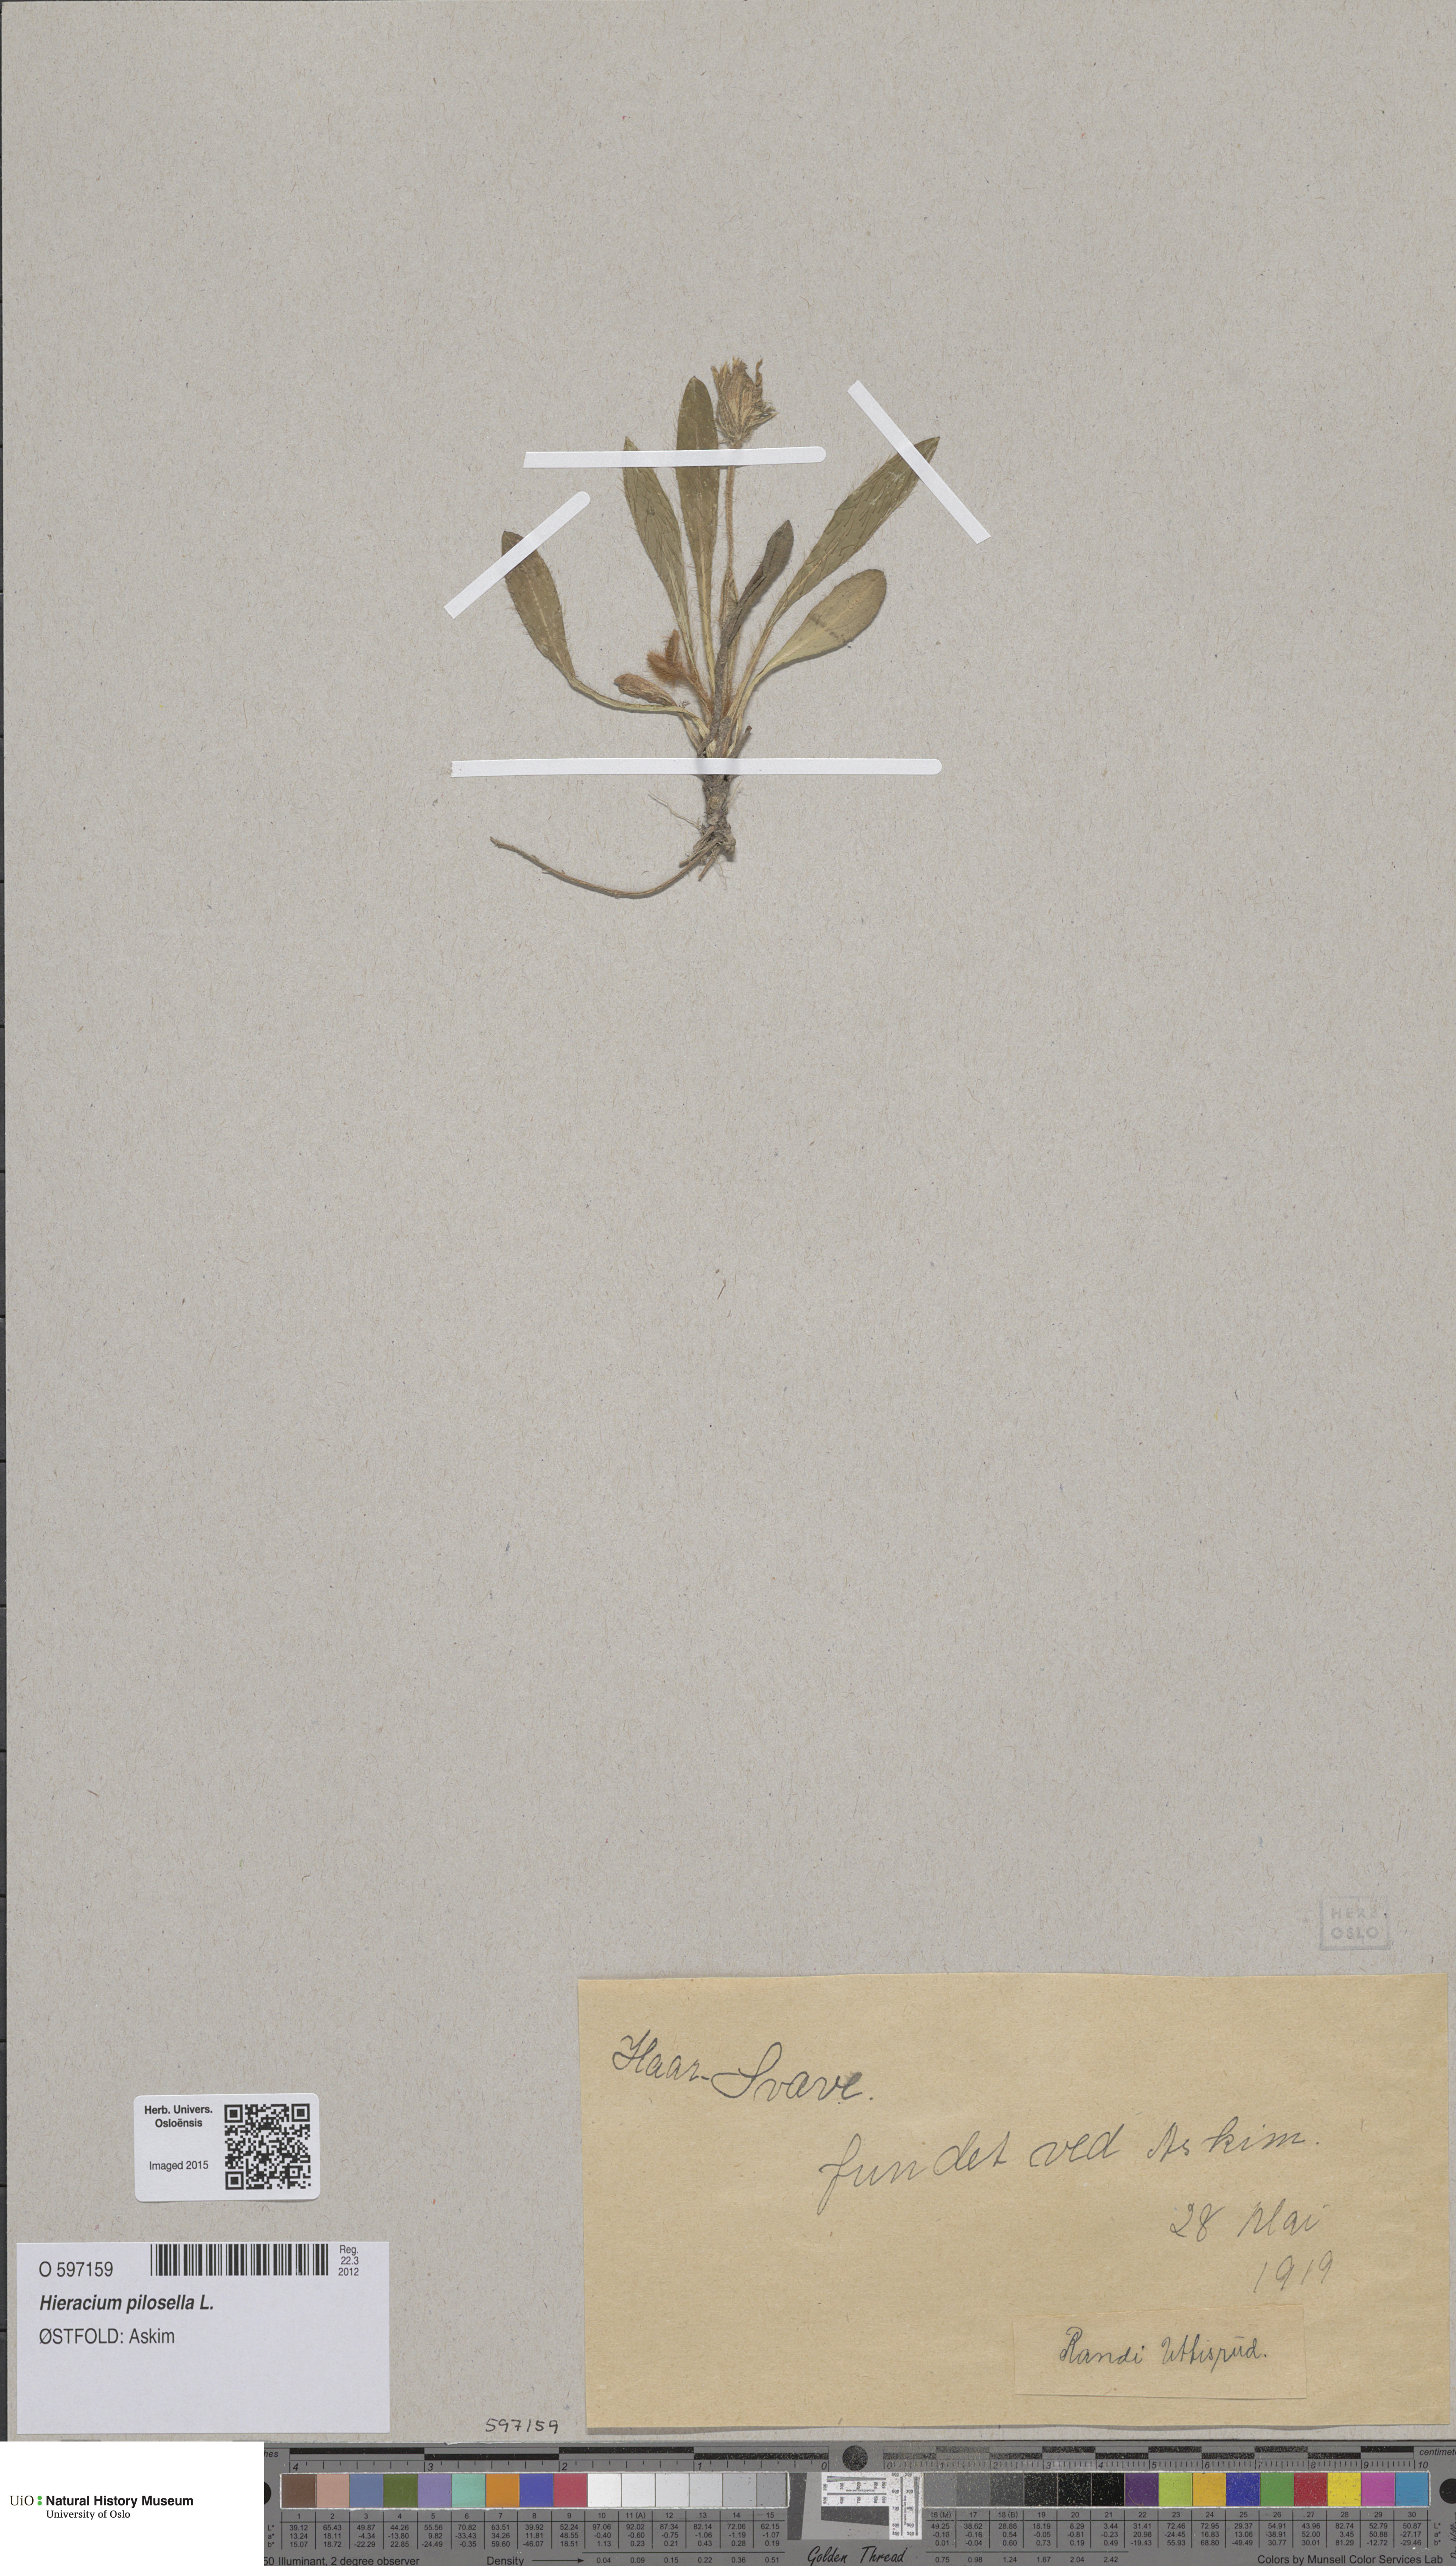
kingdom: Plantae
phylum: Tracheophyta
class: Magnoliopsida
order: Asterales
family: Asteraceae
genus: Pilosella
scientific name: Pilosella officinarum
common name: Mouse-ear hawkweed
